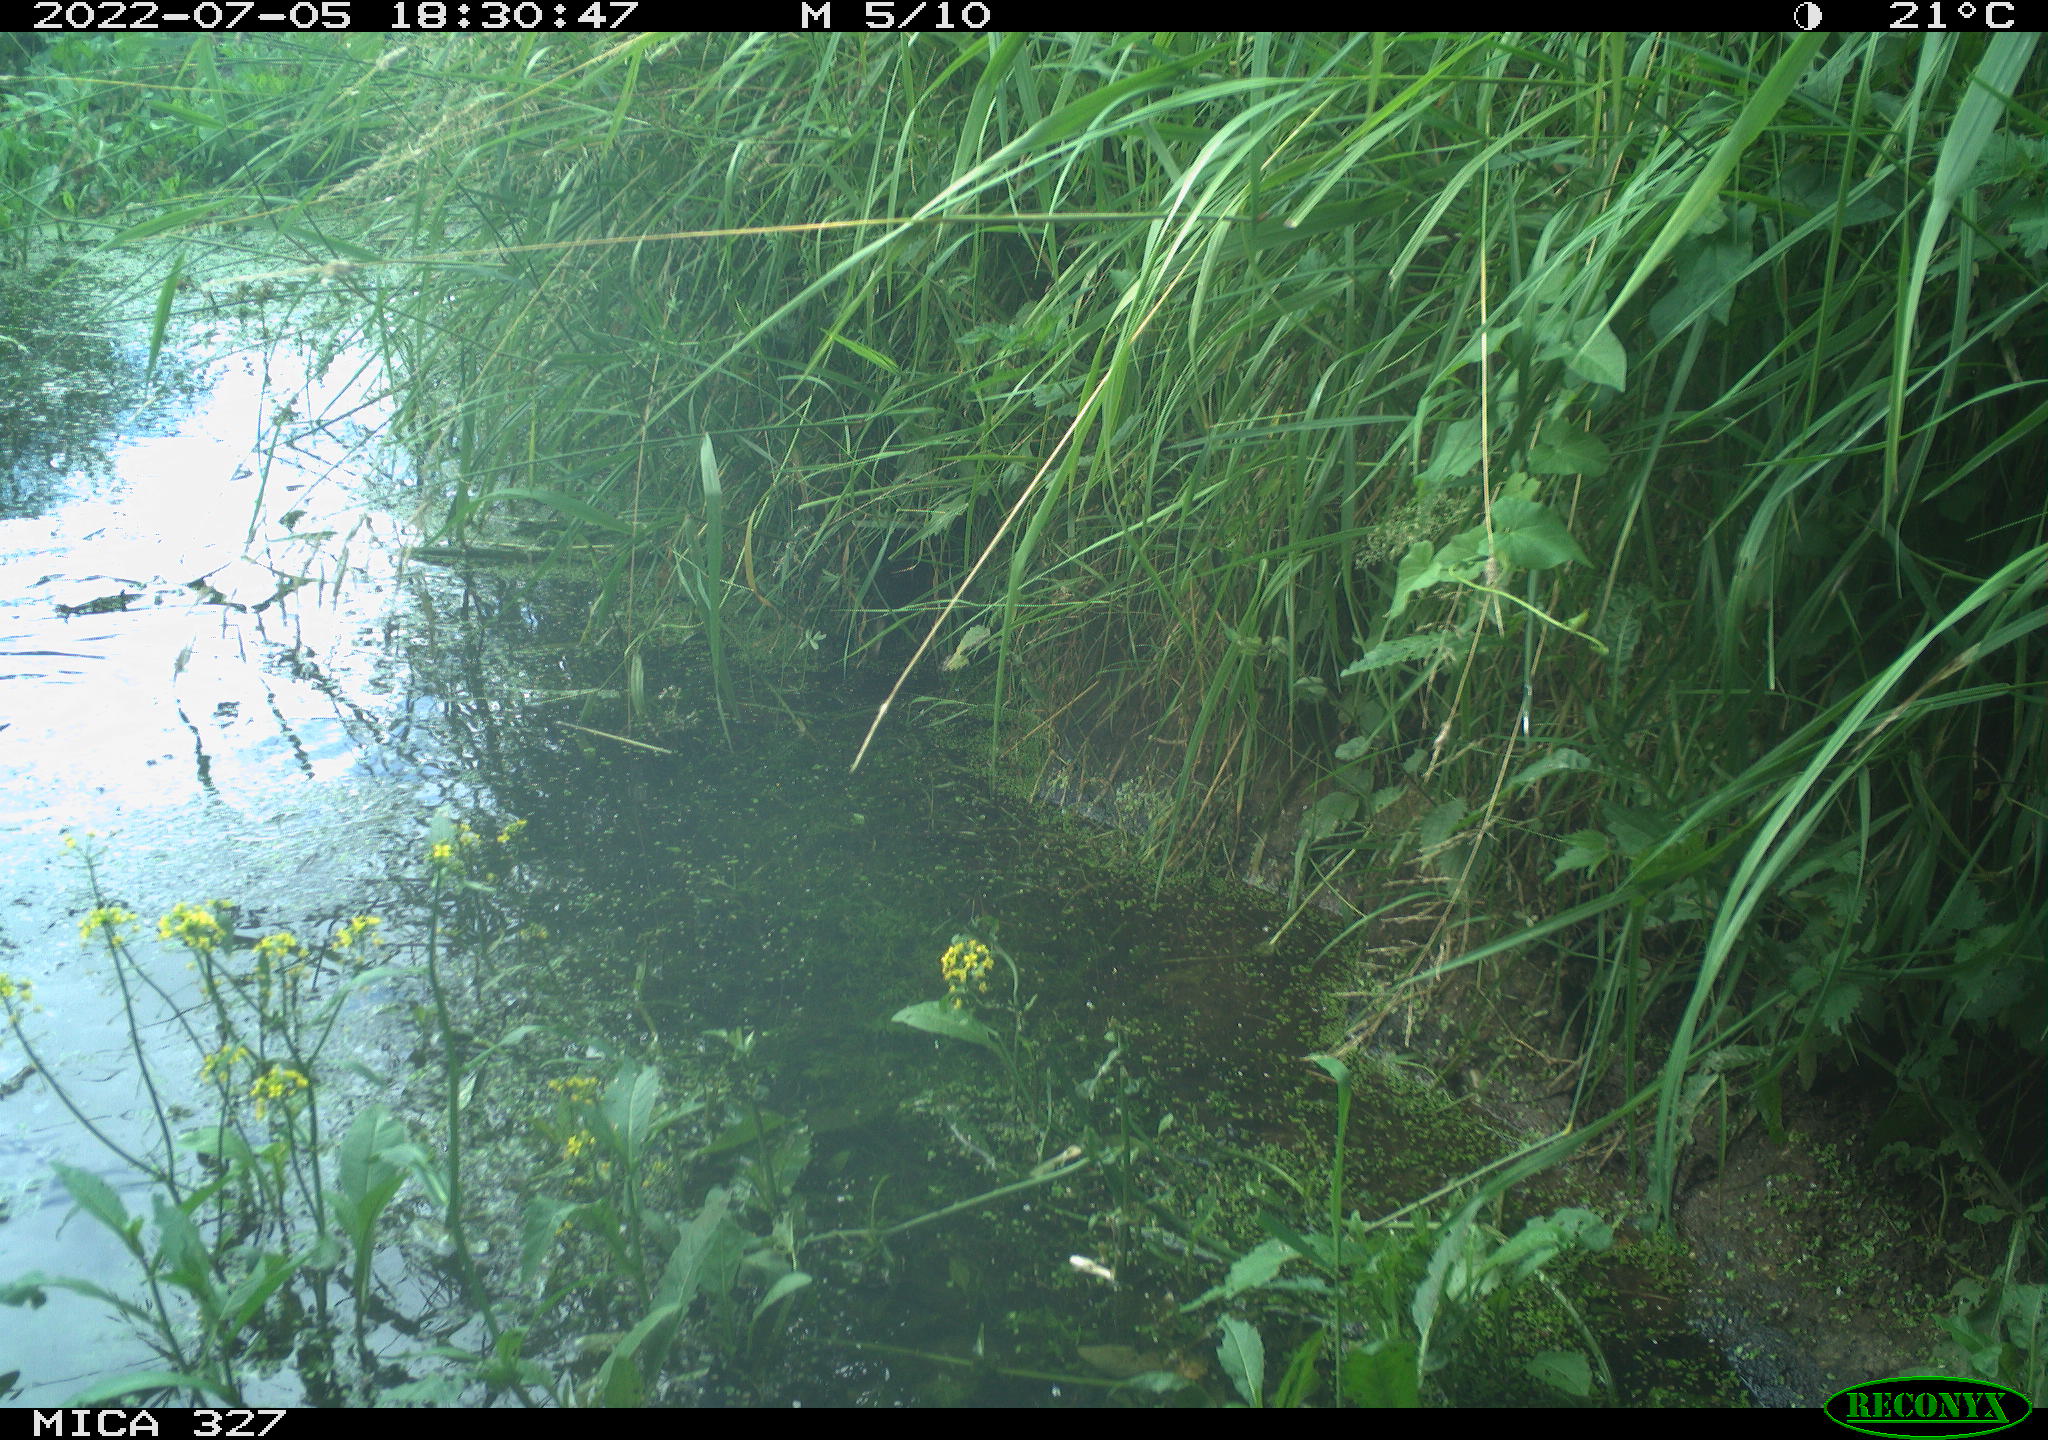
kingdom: Animalia
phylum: Chordata
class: Aves
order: Gruiformes
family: Rallidae
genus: Gallinula
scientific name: Gallinula chloropus
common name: Common moorhen
